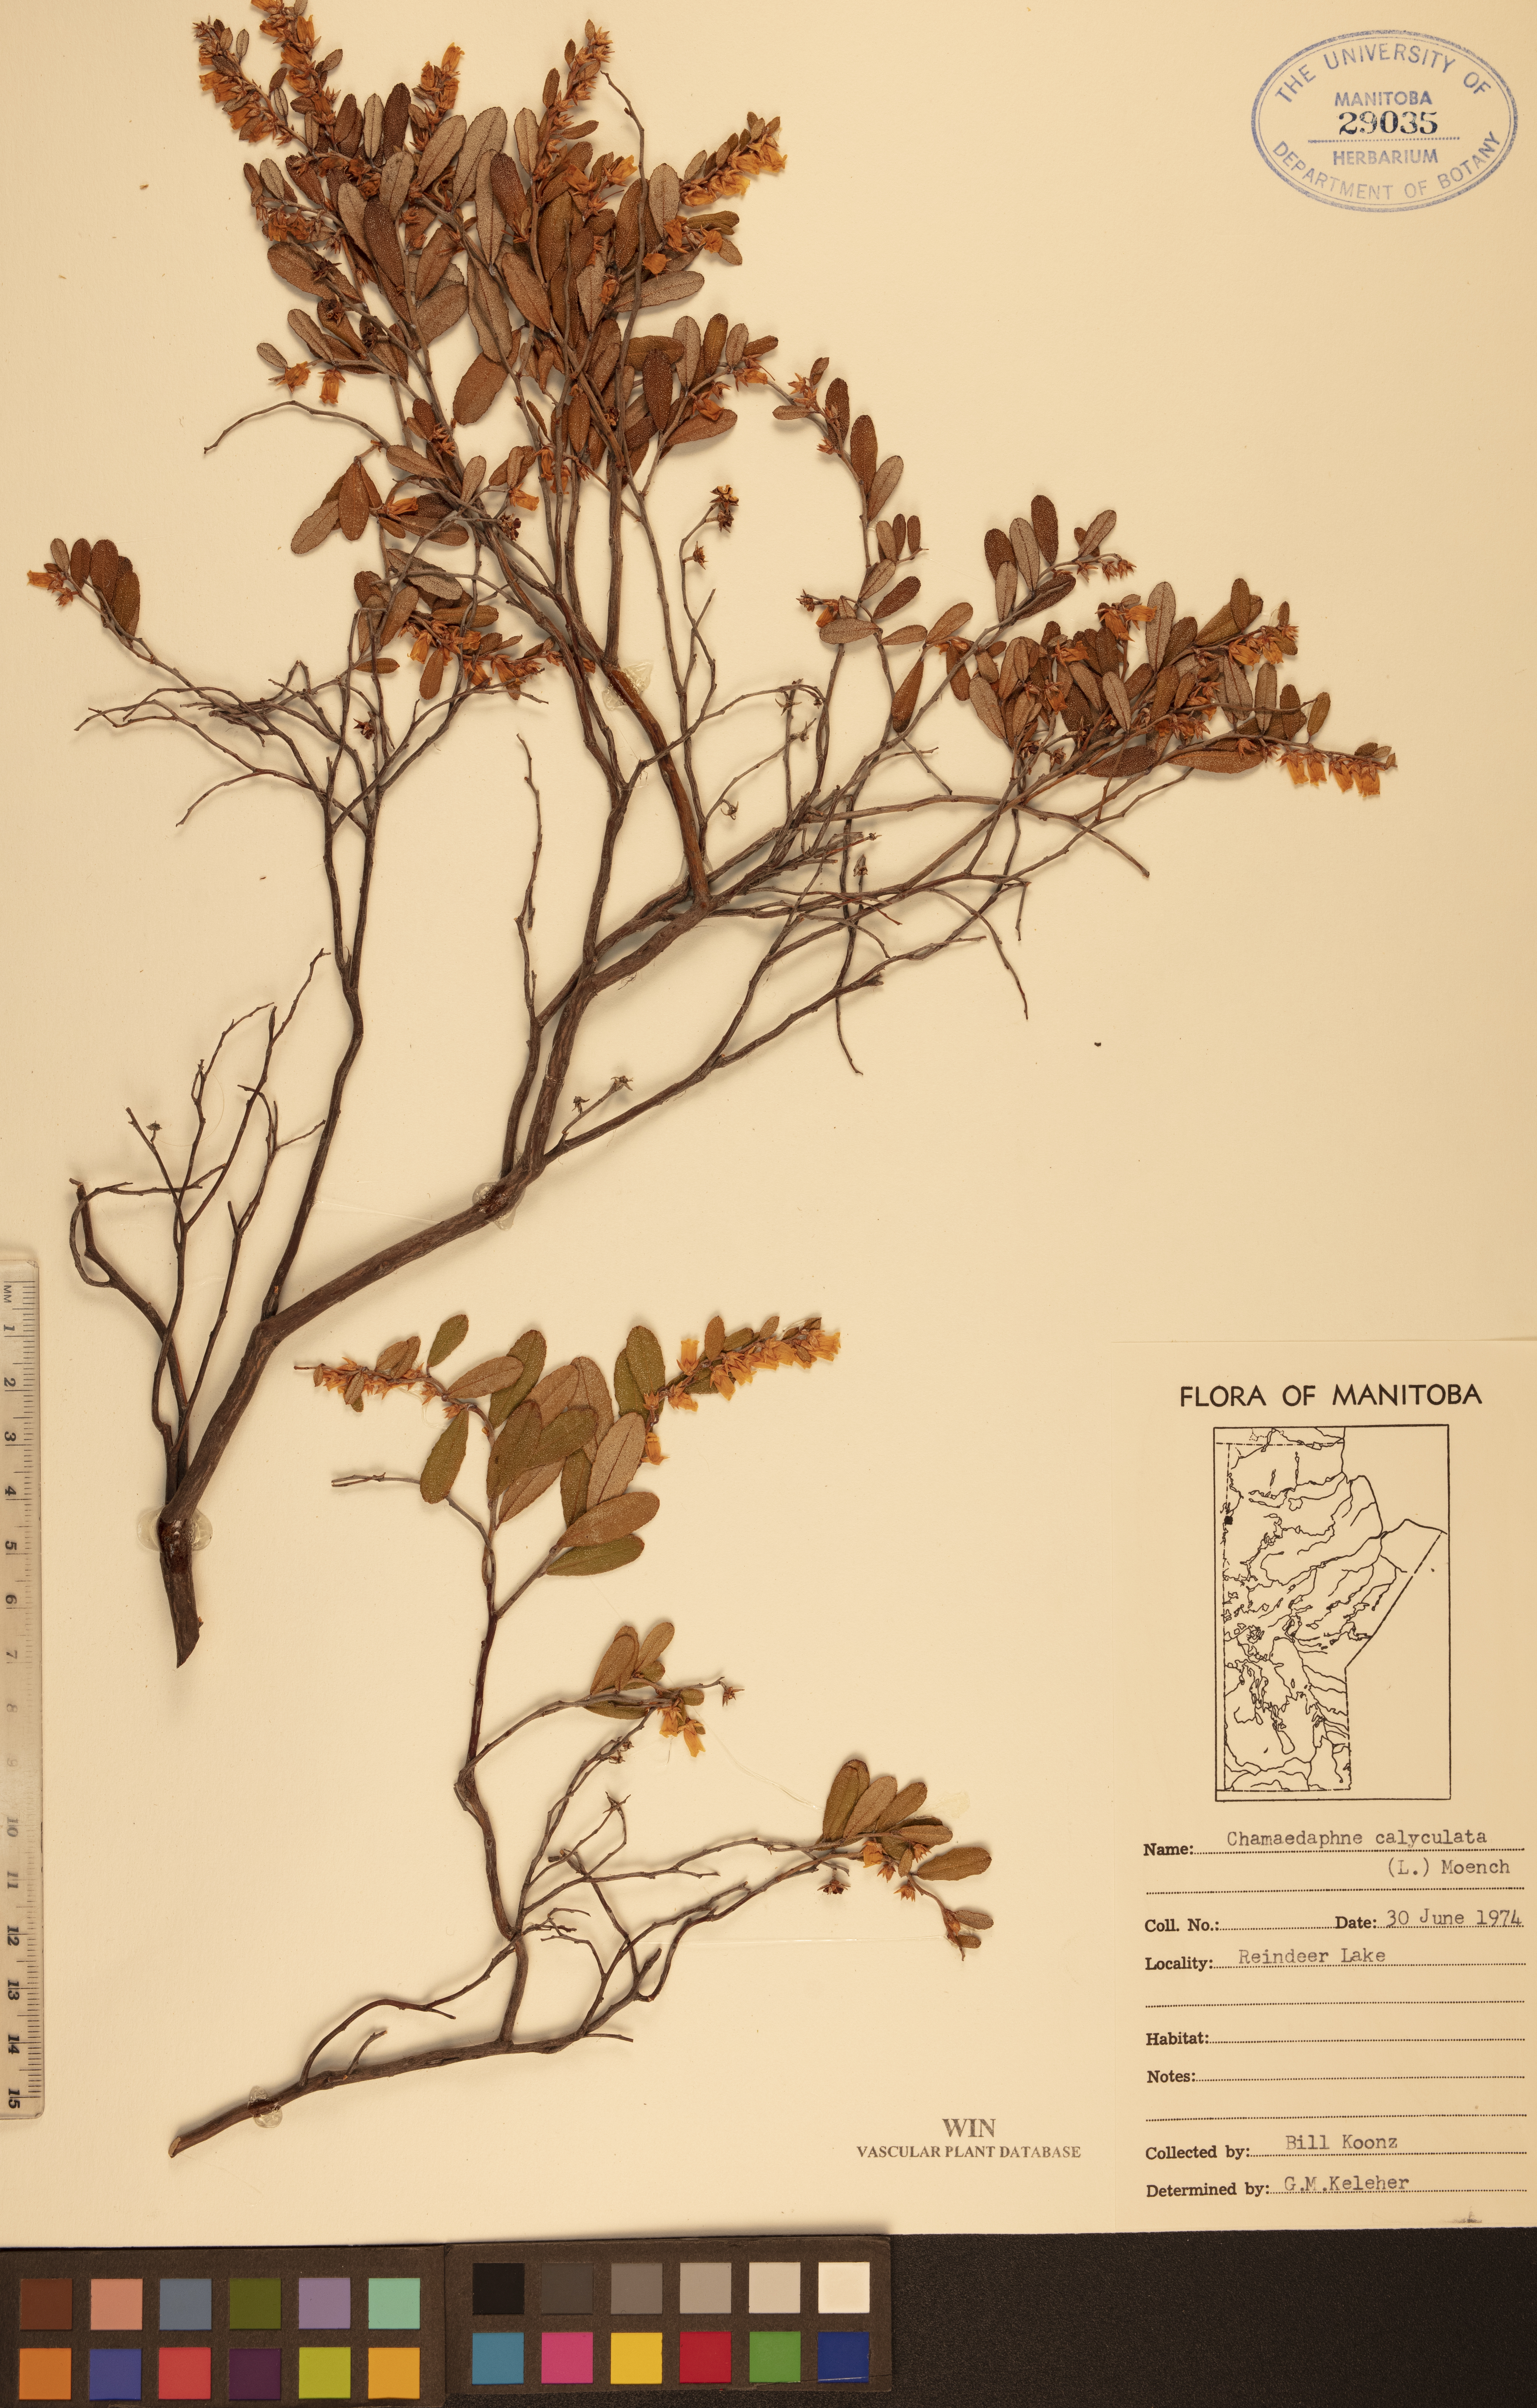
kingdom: Plantae
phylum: Tracheophyta
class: Magnoliopsida
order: Ericales
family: Ericaceae
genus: Chamaedaphne
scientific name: Chamaedaphne calyculata
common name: Leatherleaf
